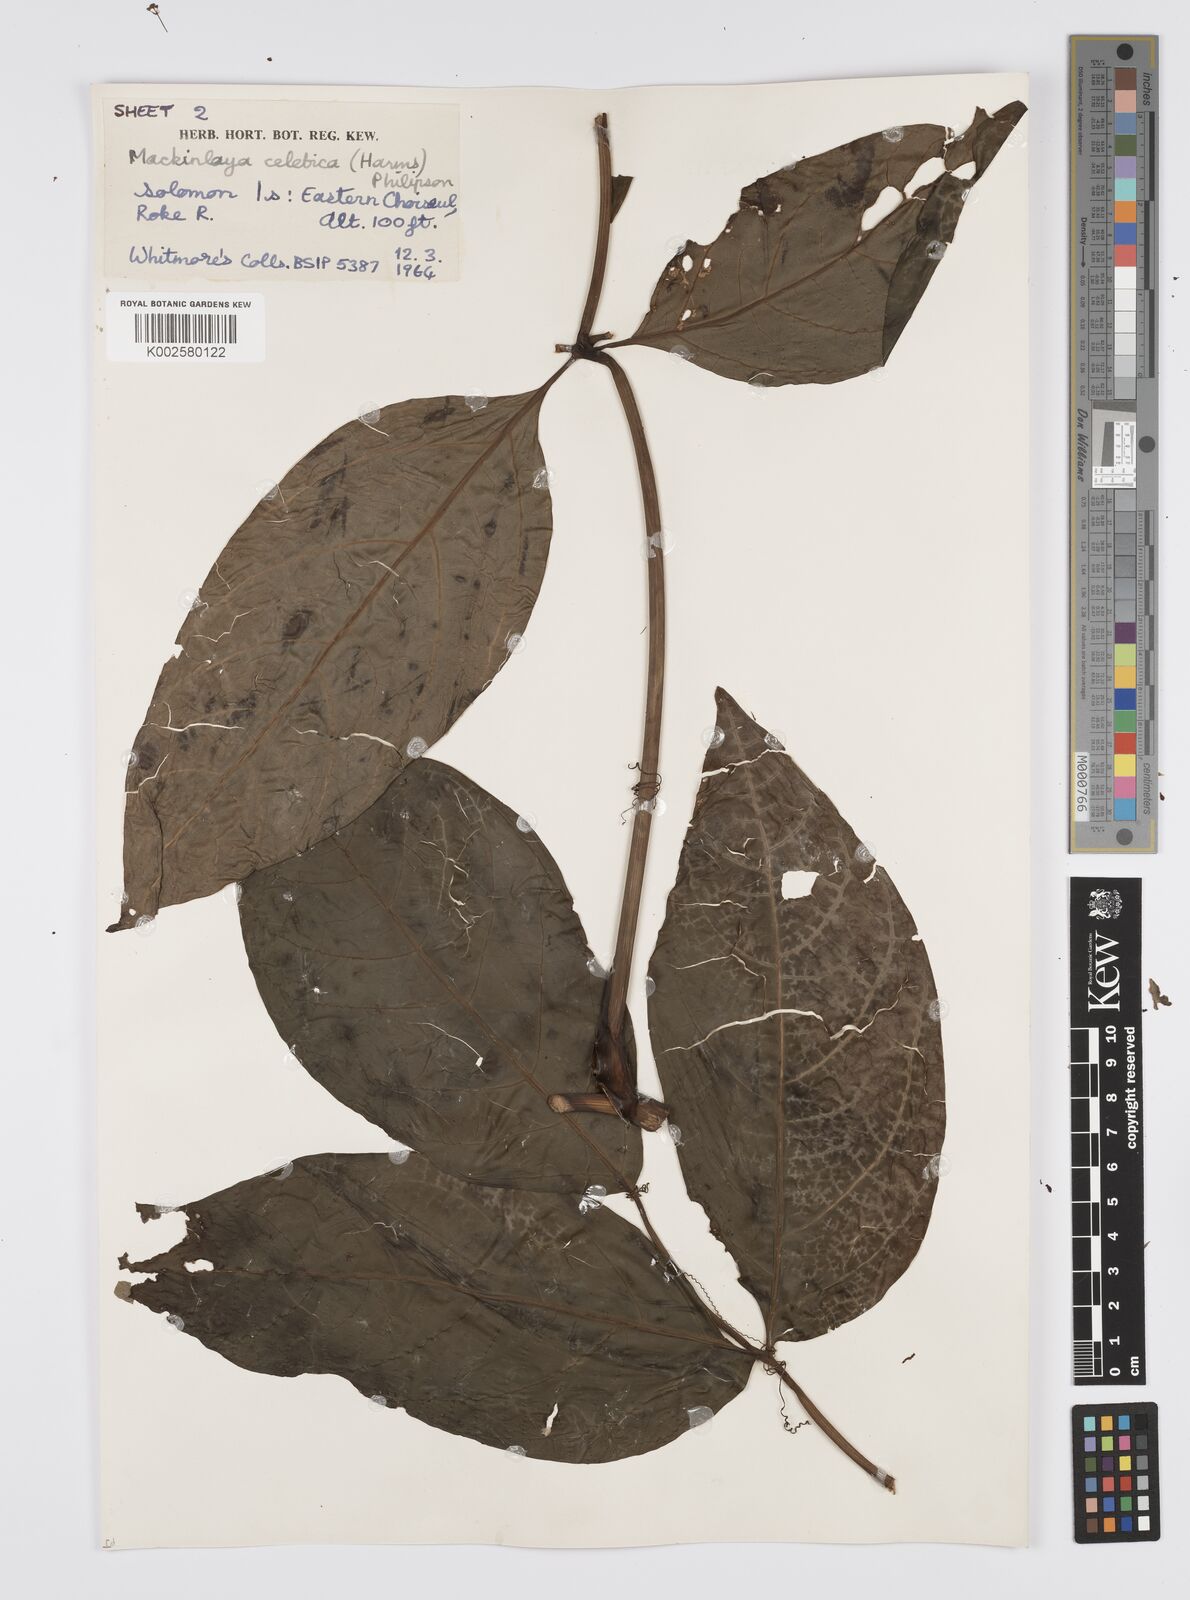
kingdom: Plantae
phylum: Tracheophyta
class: Magnoliopsida
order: Apiales
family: Apiaceae
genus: Mackinlaya
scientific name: Mackinlaya celebica
